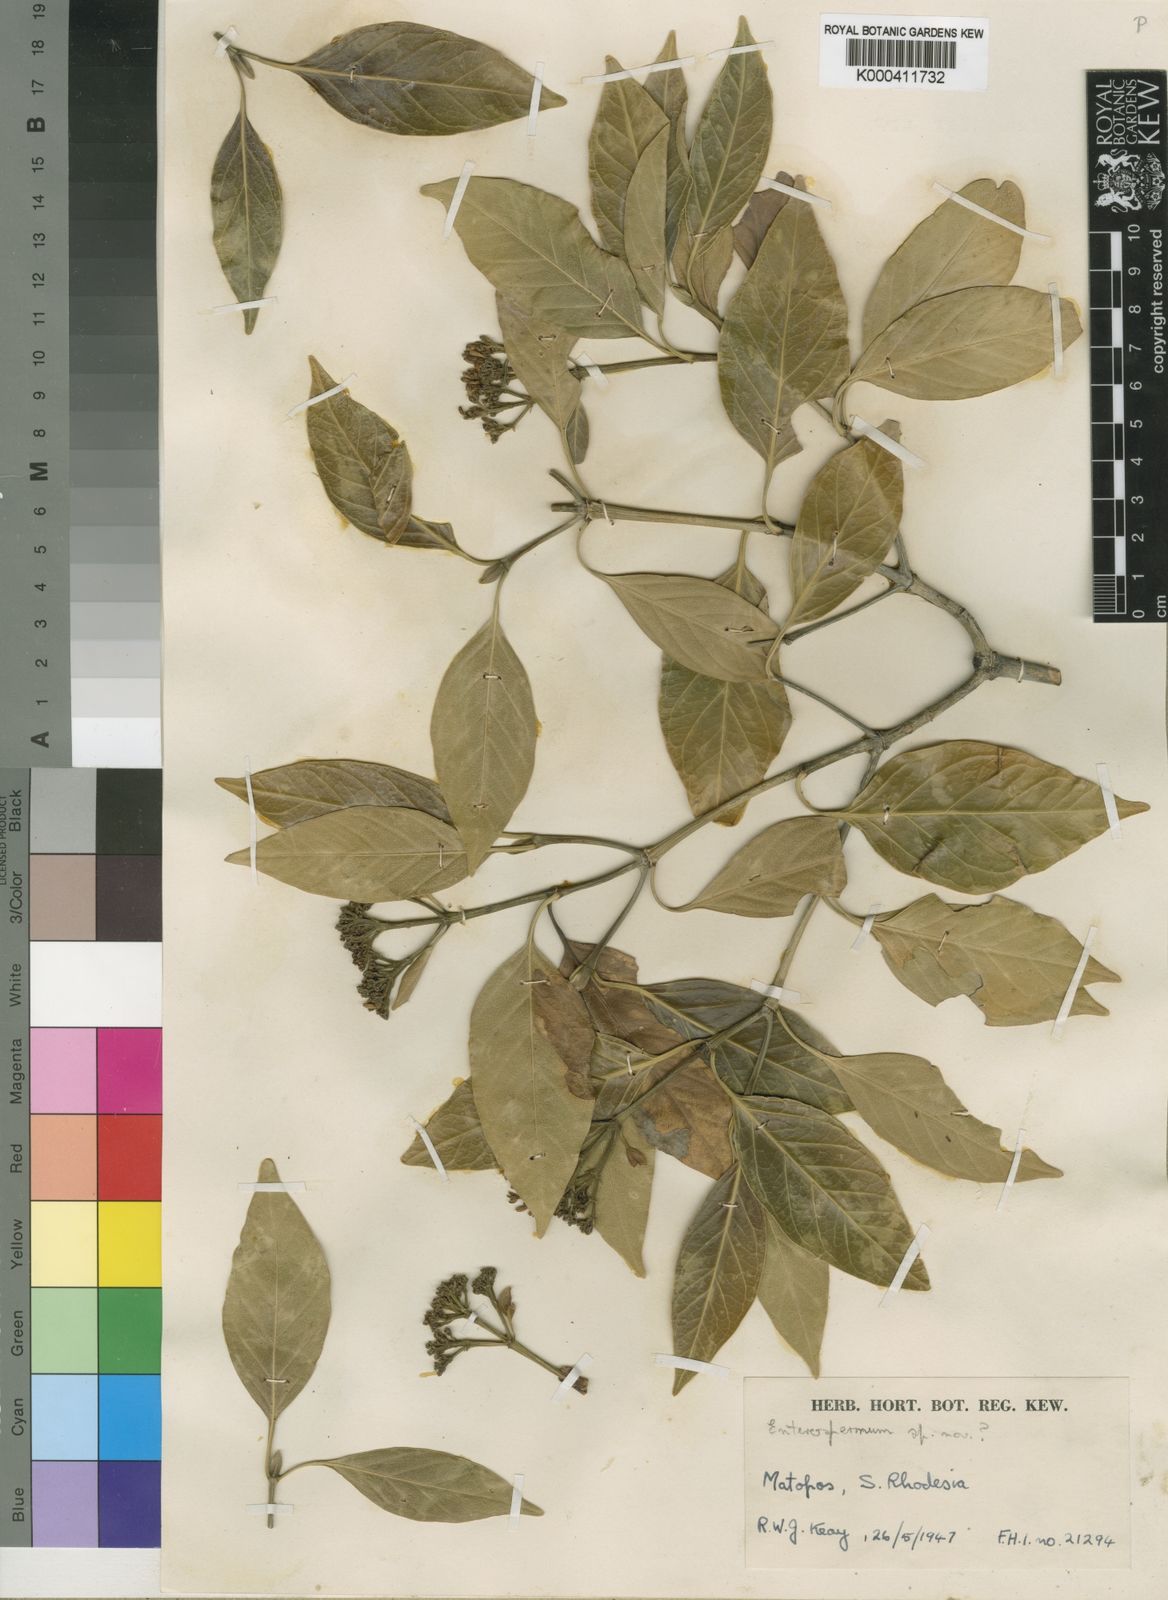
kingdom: Plantae
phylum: Tracheophyta
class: Magnoliopsida
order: Gentianales
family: Rubiaceae
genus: Coptosperma
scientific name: Coptosperma rhodesiacum
